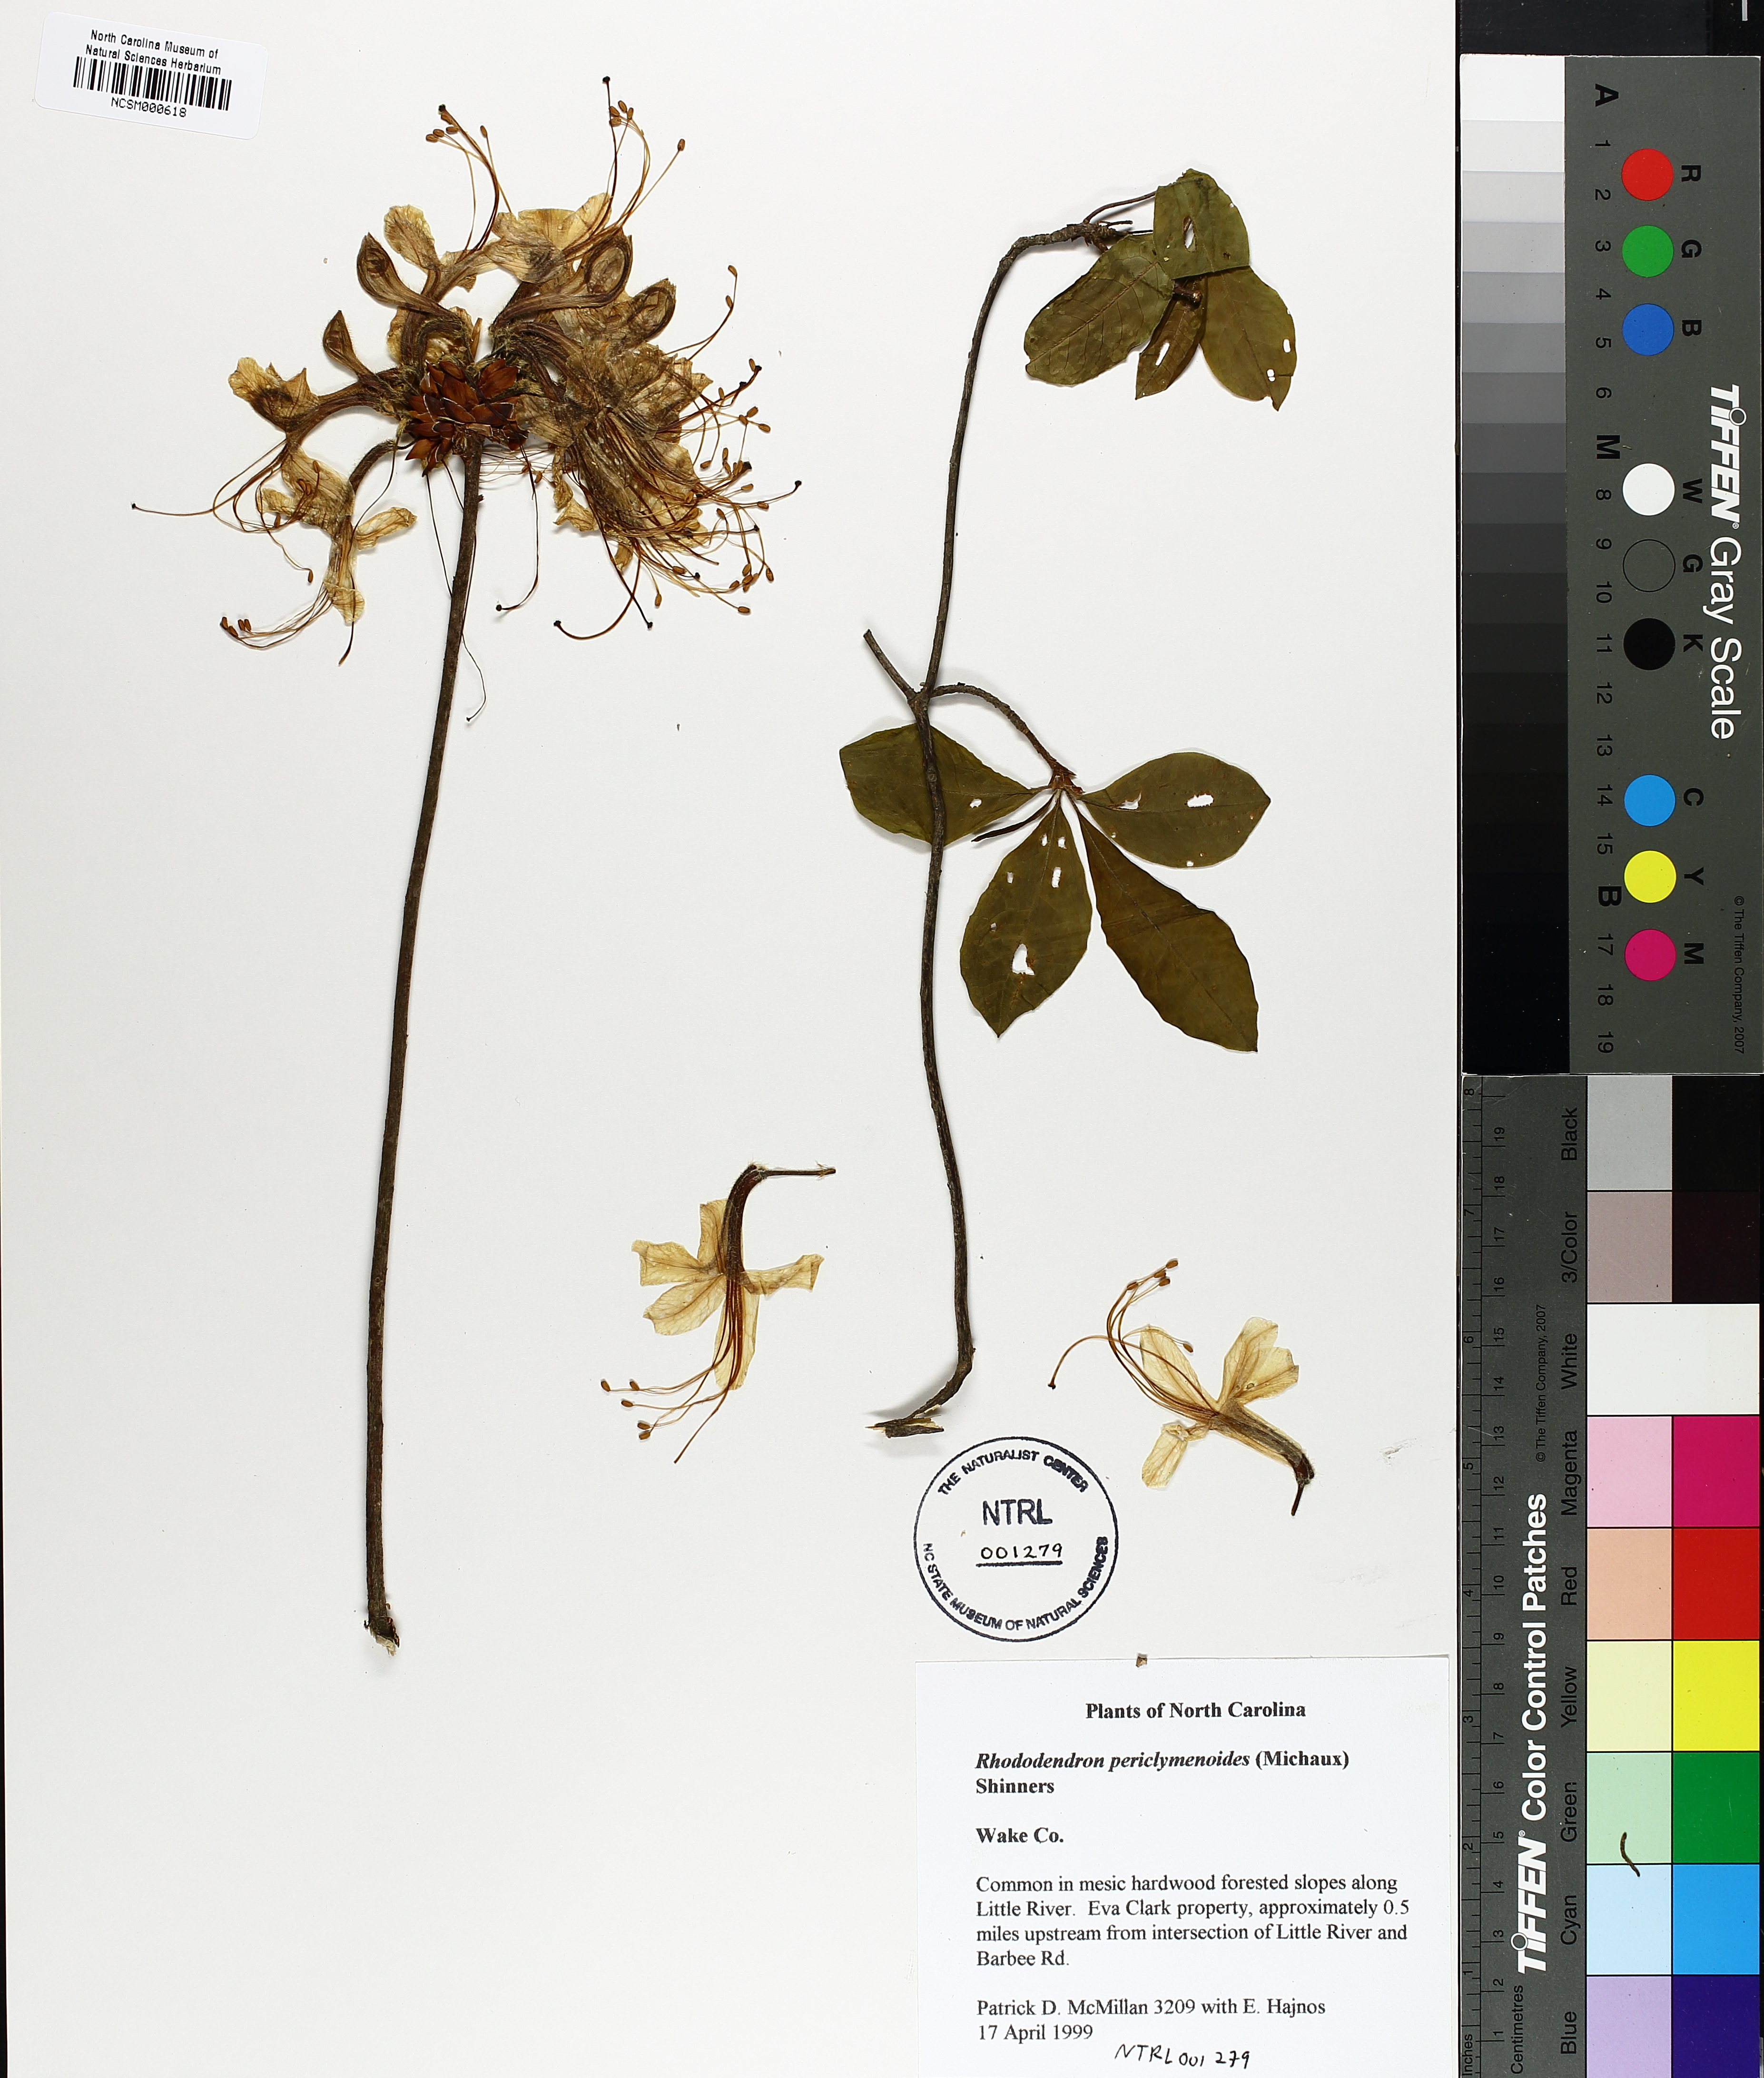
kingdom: Plantae
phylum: Tracheophyta
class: Magnoliopsida
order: Ericales
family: Ericaceae
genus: Rhododendron
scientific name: Rhododendron periclymenoides
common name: Election-pink
